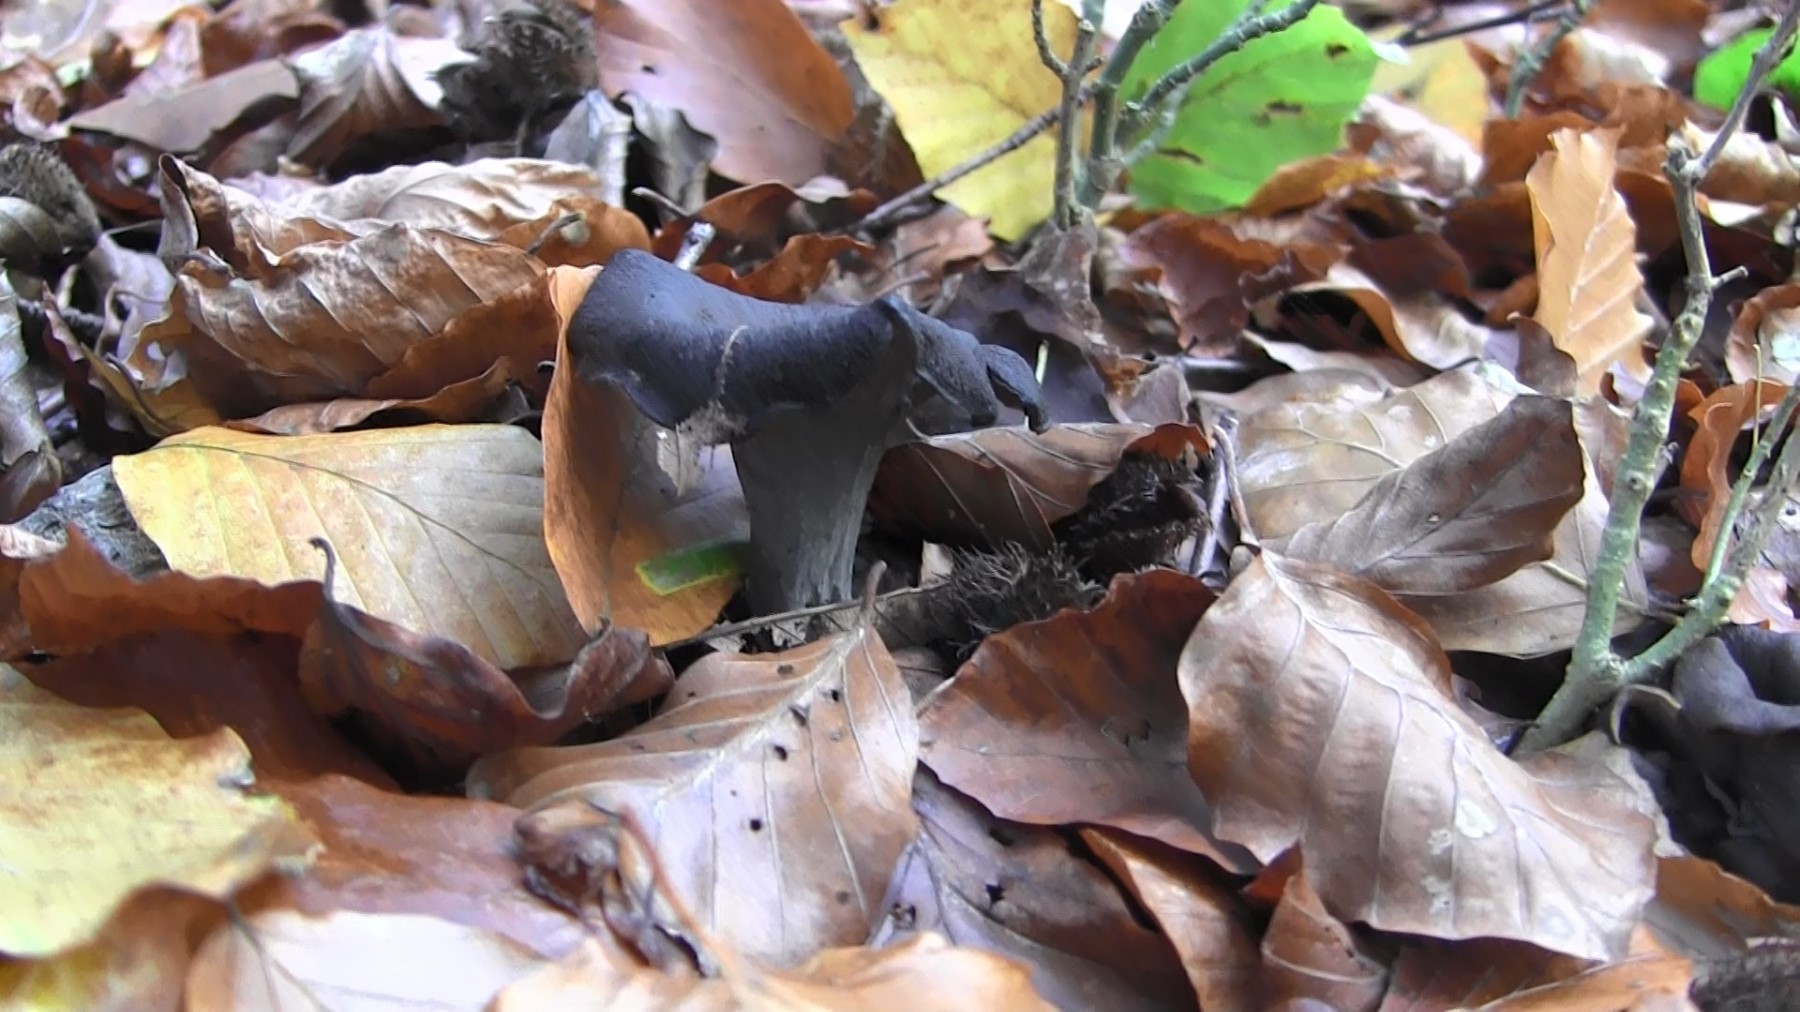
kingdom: Fungi
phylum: Basidiomycota
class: Agaricomycetes
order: Cantharellales
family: Hydnaceae
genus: Craterellus
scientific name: Craterellus cornucopioides
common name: trompetsvamp
